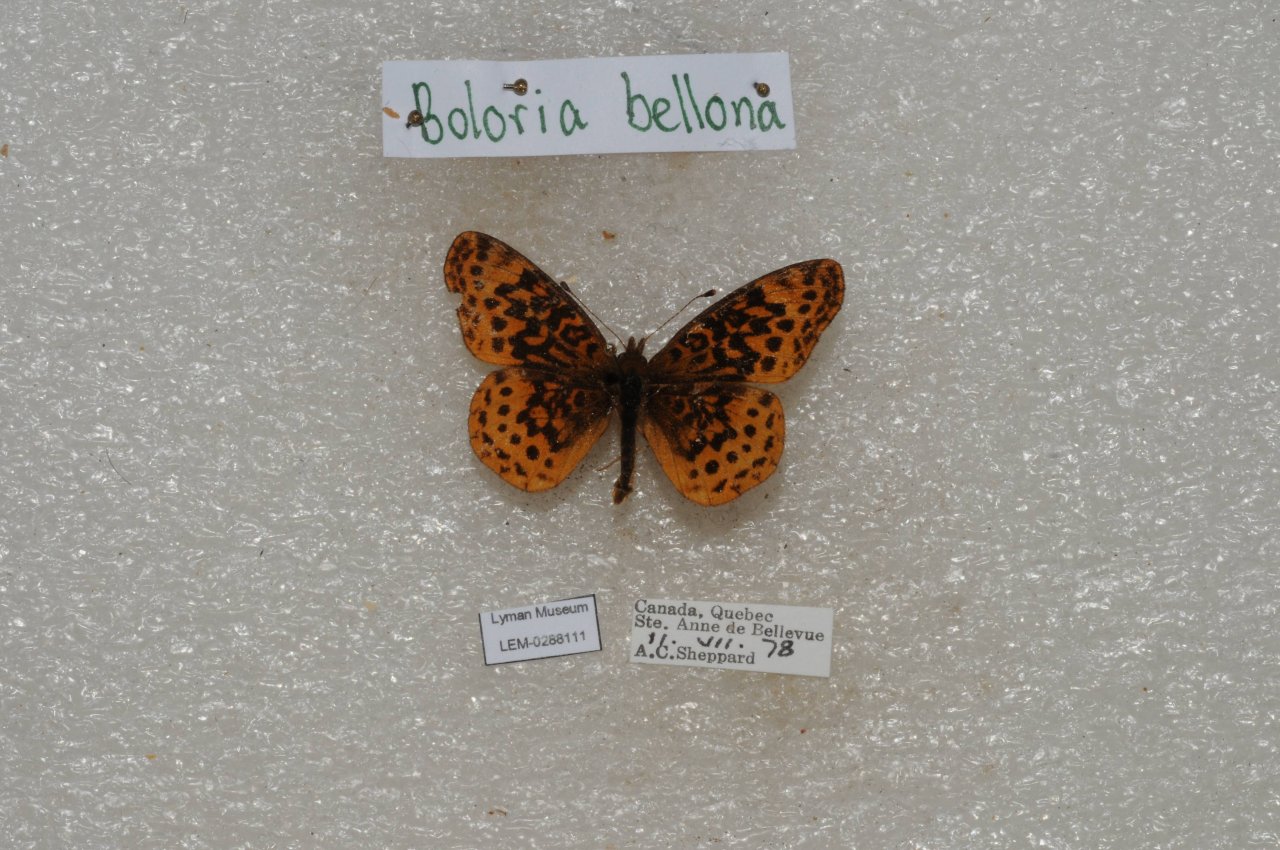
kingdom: Animalia
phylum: Arthropoda
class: Insecta
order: Lepidoptera
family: Nymphalidae
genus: Clossiana
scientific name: Clossiana toddi
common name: Meadow Fritillary
